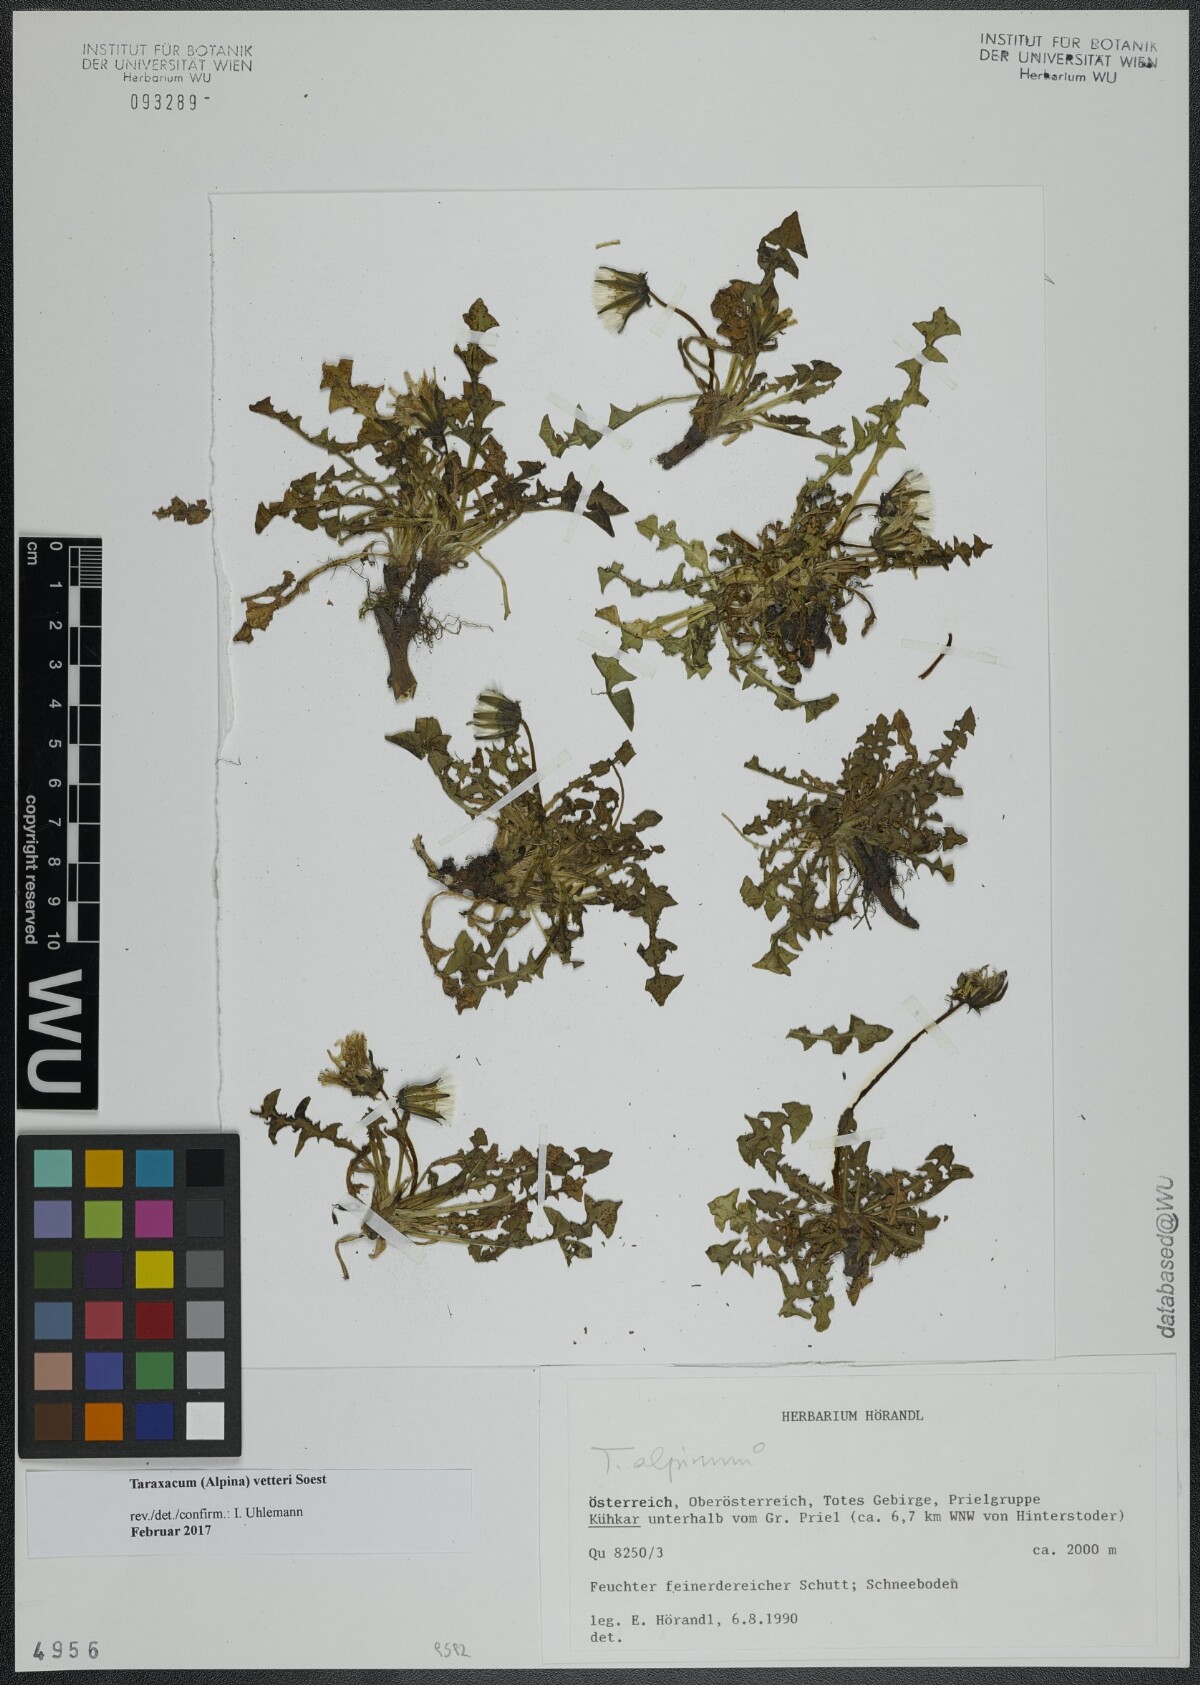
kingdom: Plantae
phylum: Tracheophyta
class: Magnoliopsida
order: Asterales
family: Asteraceae
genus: Taraxacum
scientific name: Taraxacum vetteri
